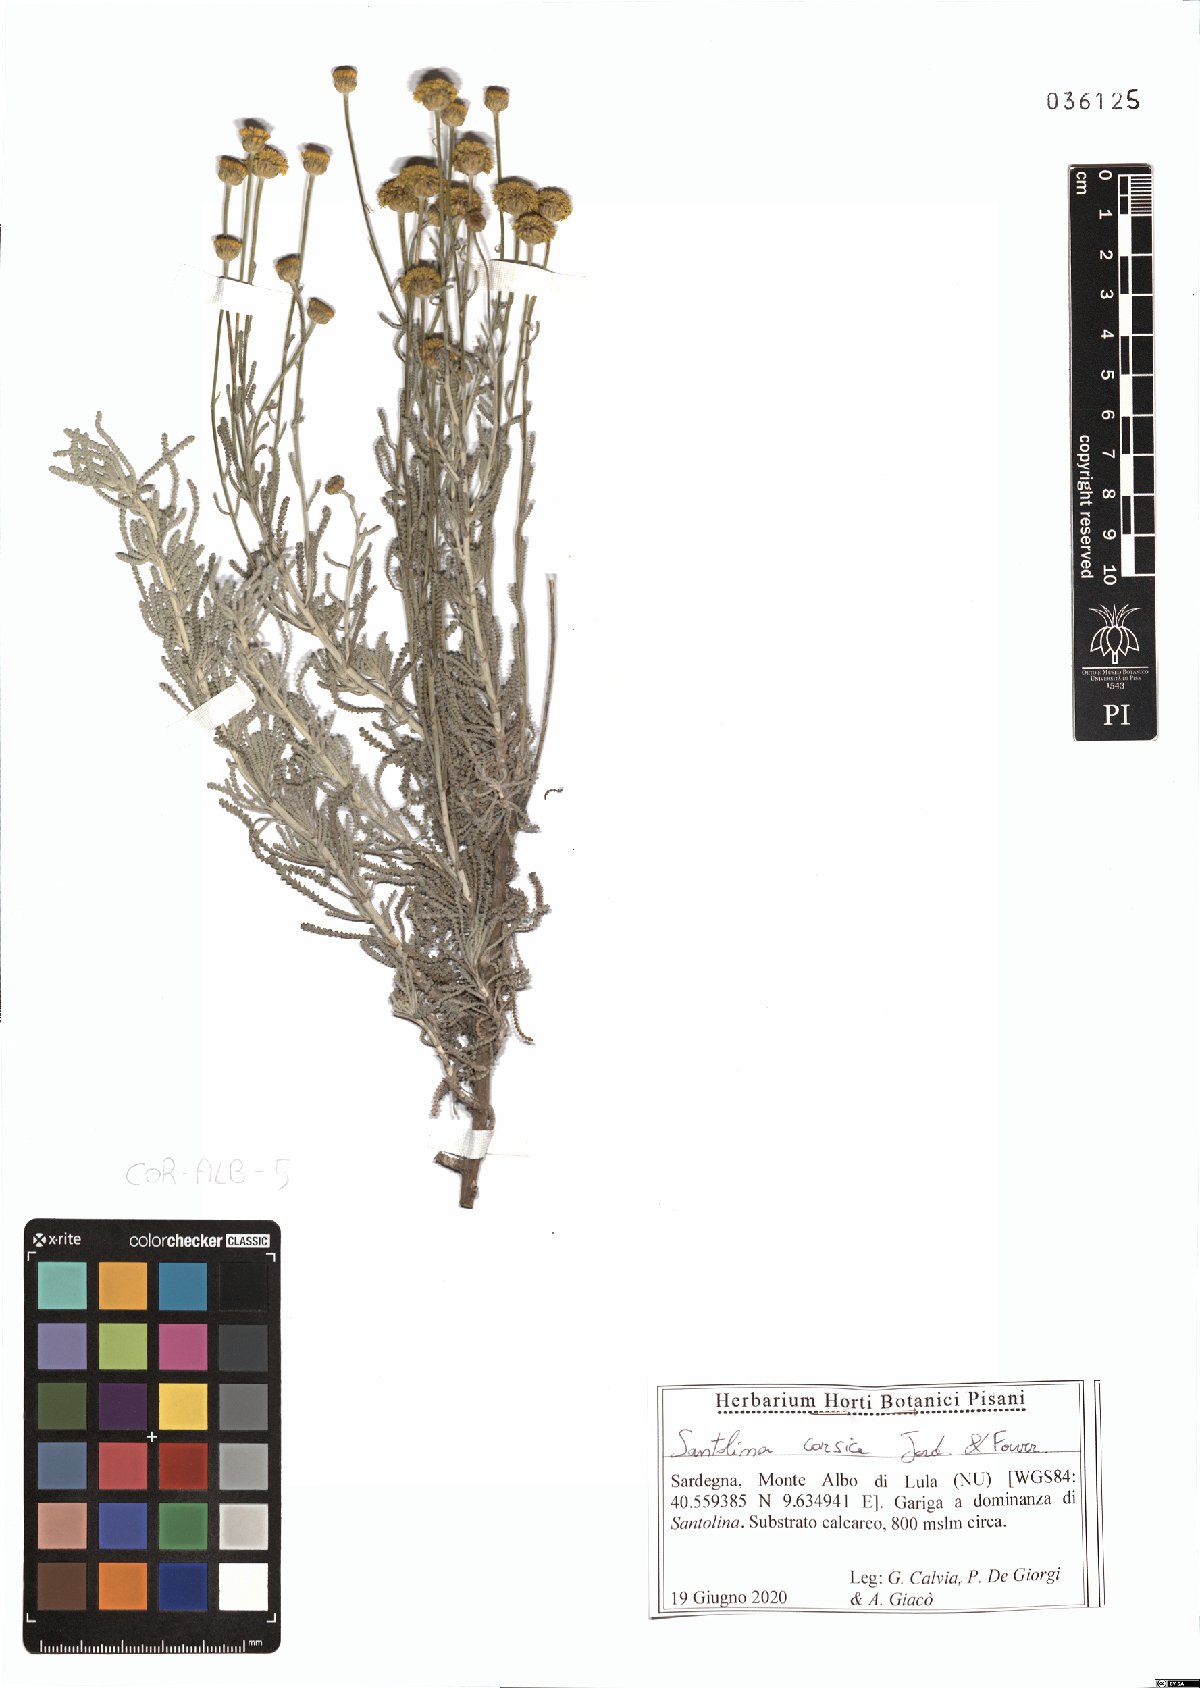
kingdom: Plantae
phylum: Tracheophyta
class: Magnoliopsida
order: Asterales
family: Asteraceae
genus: Santolina
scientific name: Santolina corsica
